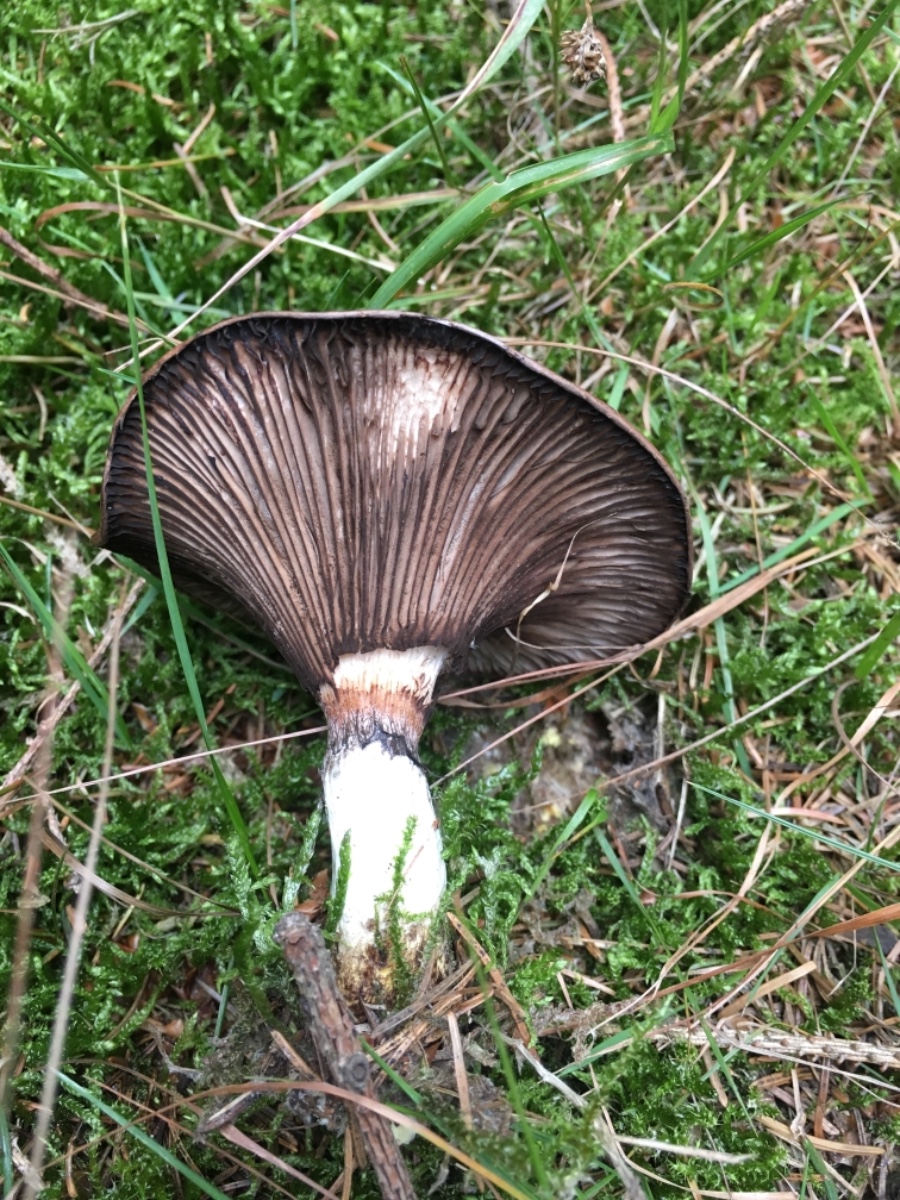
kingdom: Fungi
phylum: Basidiomycota
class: Agaricomycetes
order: Boletales
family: Gomphidiaceae
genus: Gomphidius
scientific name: Gomphidius glutinosus
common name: grå slimslør
